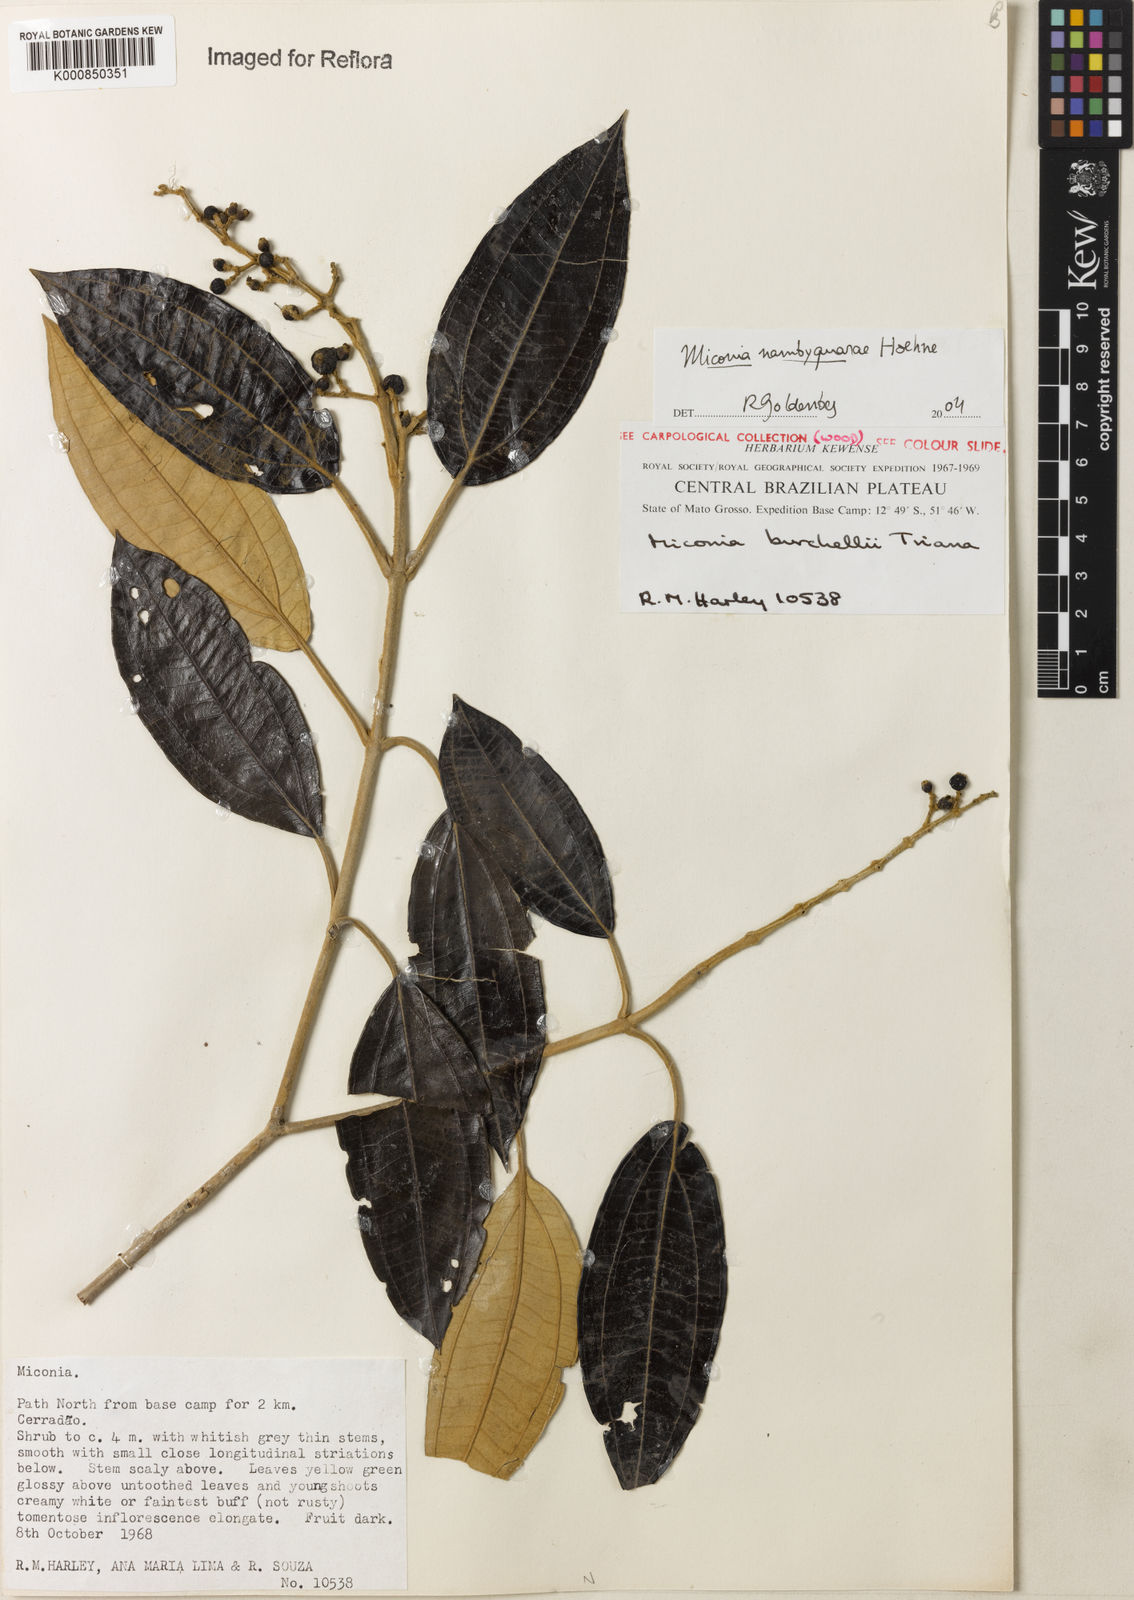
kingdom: Plantae
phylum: Tracheophyta
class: Magnoliopsida
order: Myrtales
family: Melastomataceae
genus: Miconia
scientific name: Miconia nambyquarae
